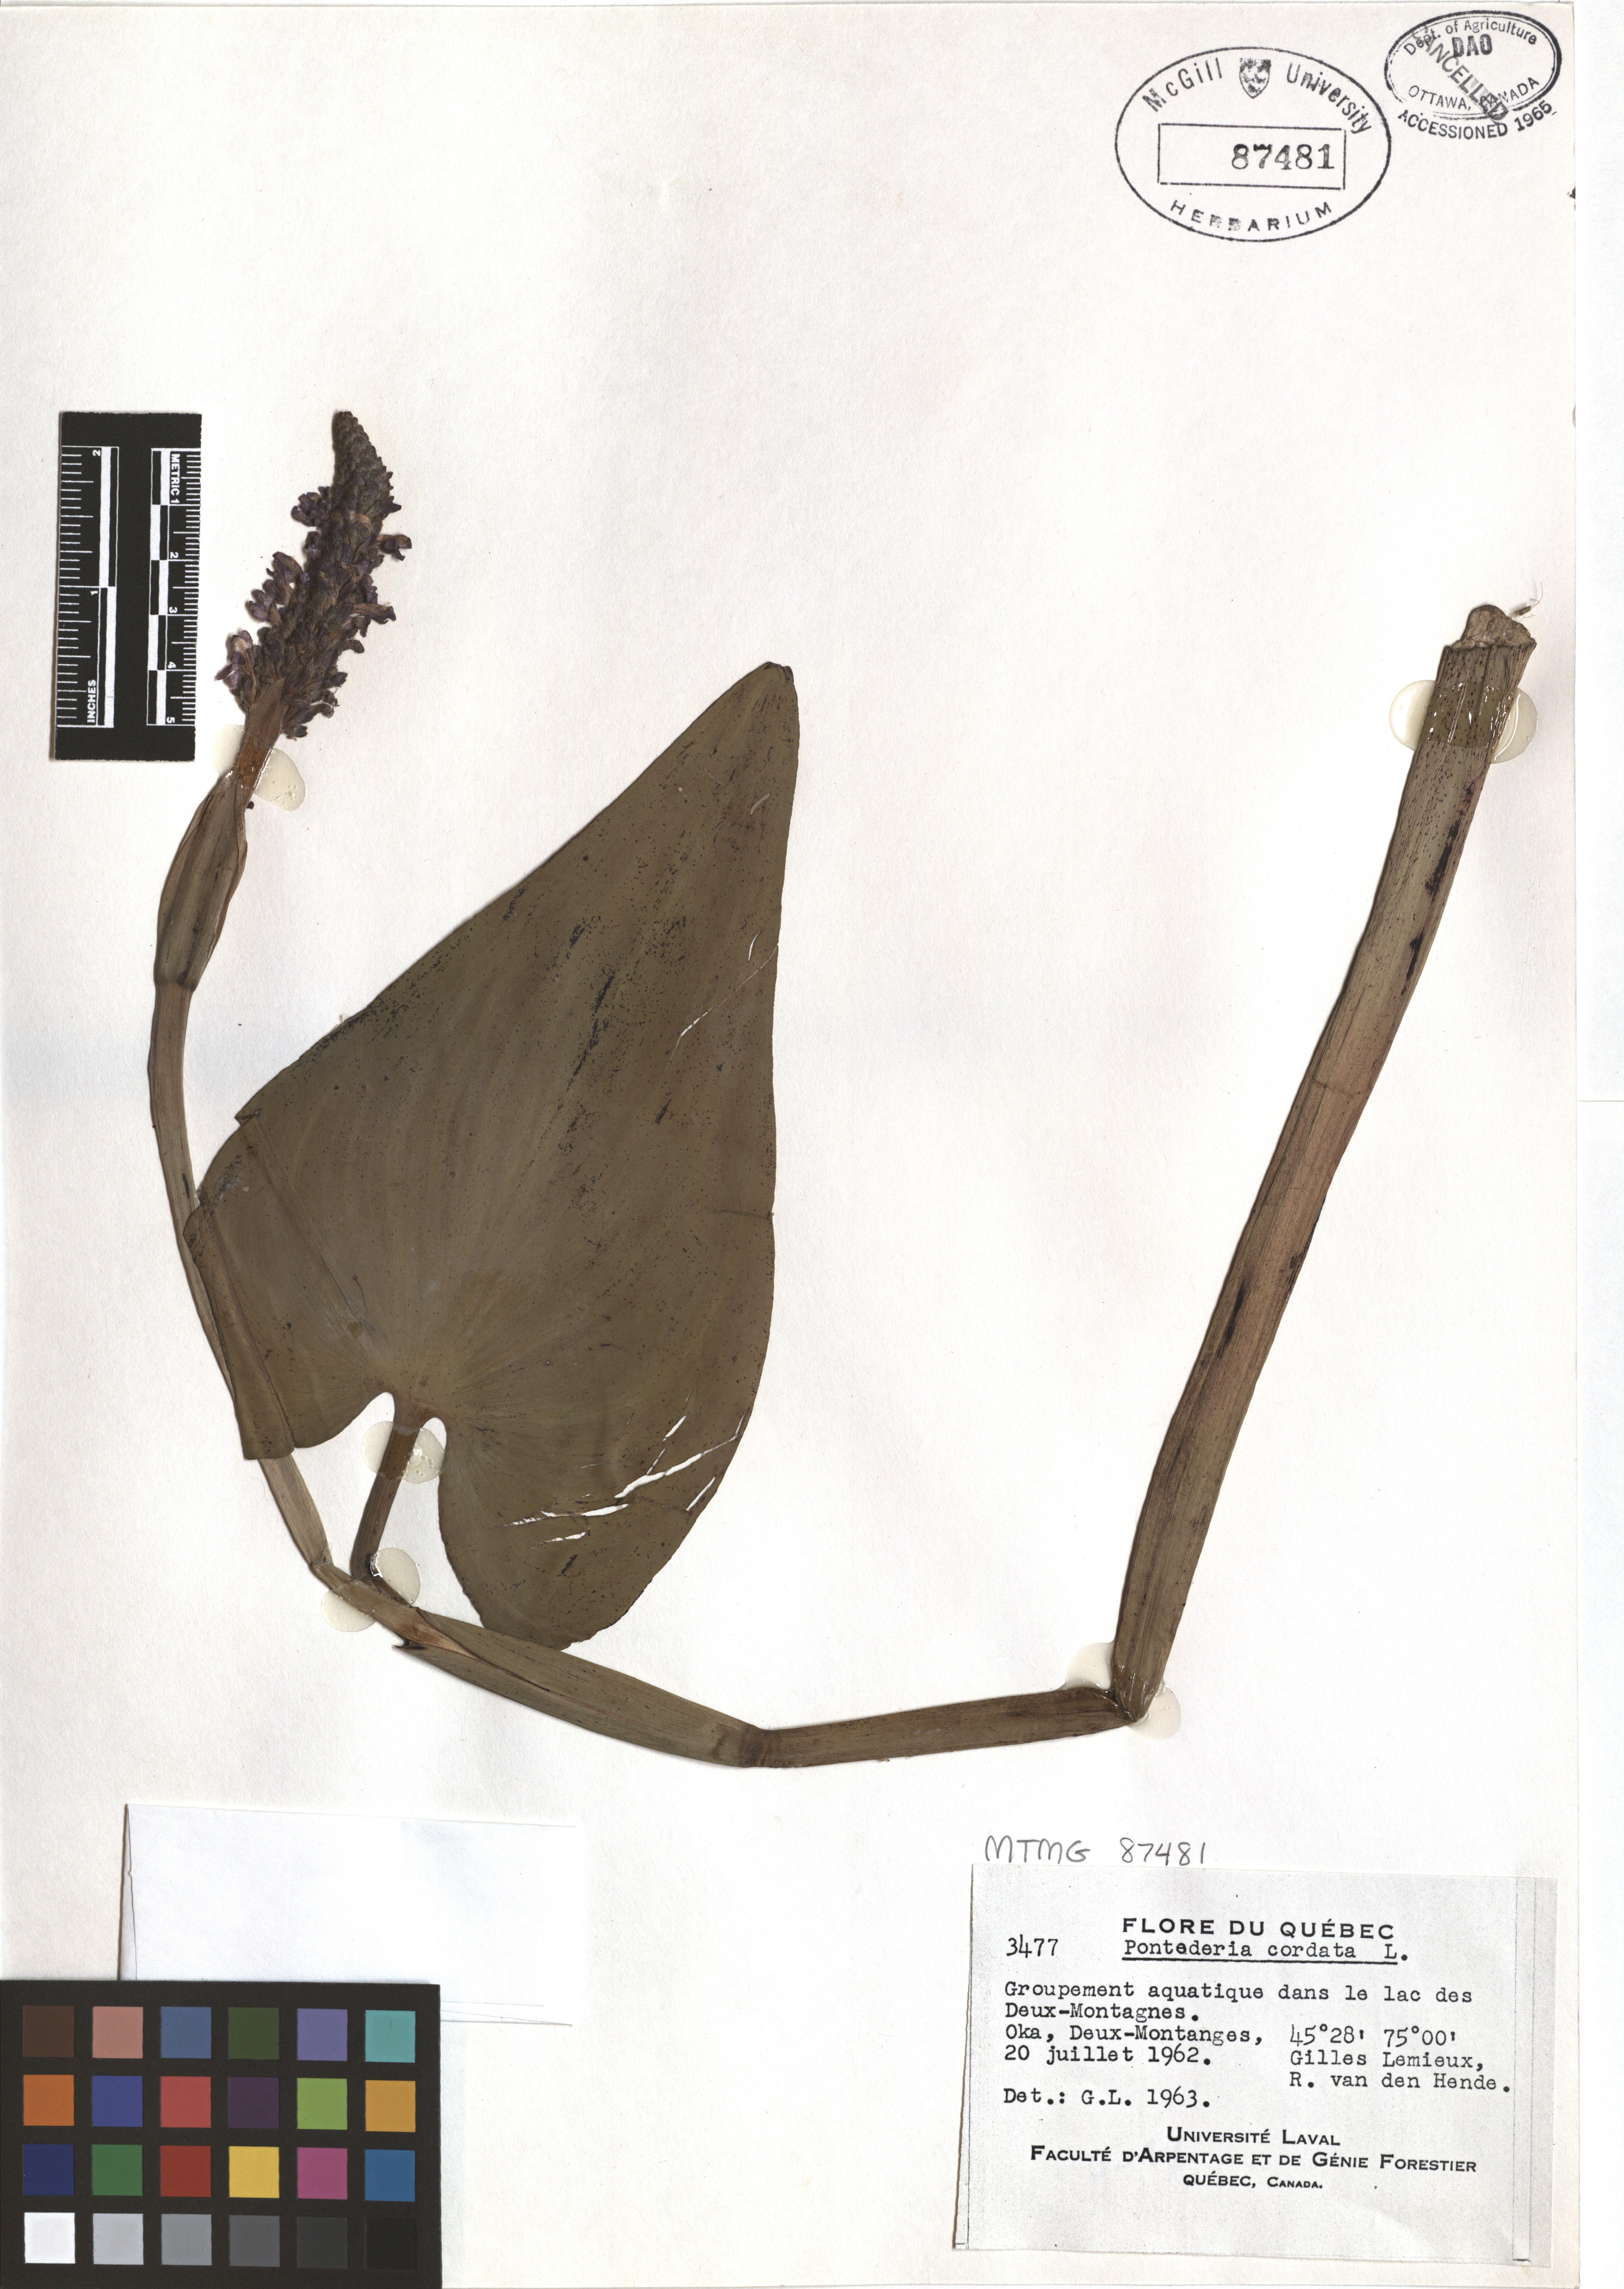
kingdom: Plantae
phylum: Tracheophyta
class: Liliopsida
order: Commelinales
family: Pontederiaceae
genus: Pontederia
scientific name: Pontederia cordata
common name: Pickerelweed
